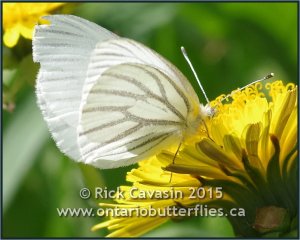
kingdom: Animalia
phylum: Arthropoda
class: Insecta
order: Lepidoptera
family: Pieridae
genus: Pieris
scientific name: Pieris oleracea
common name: Mustard White
